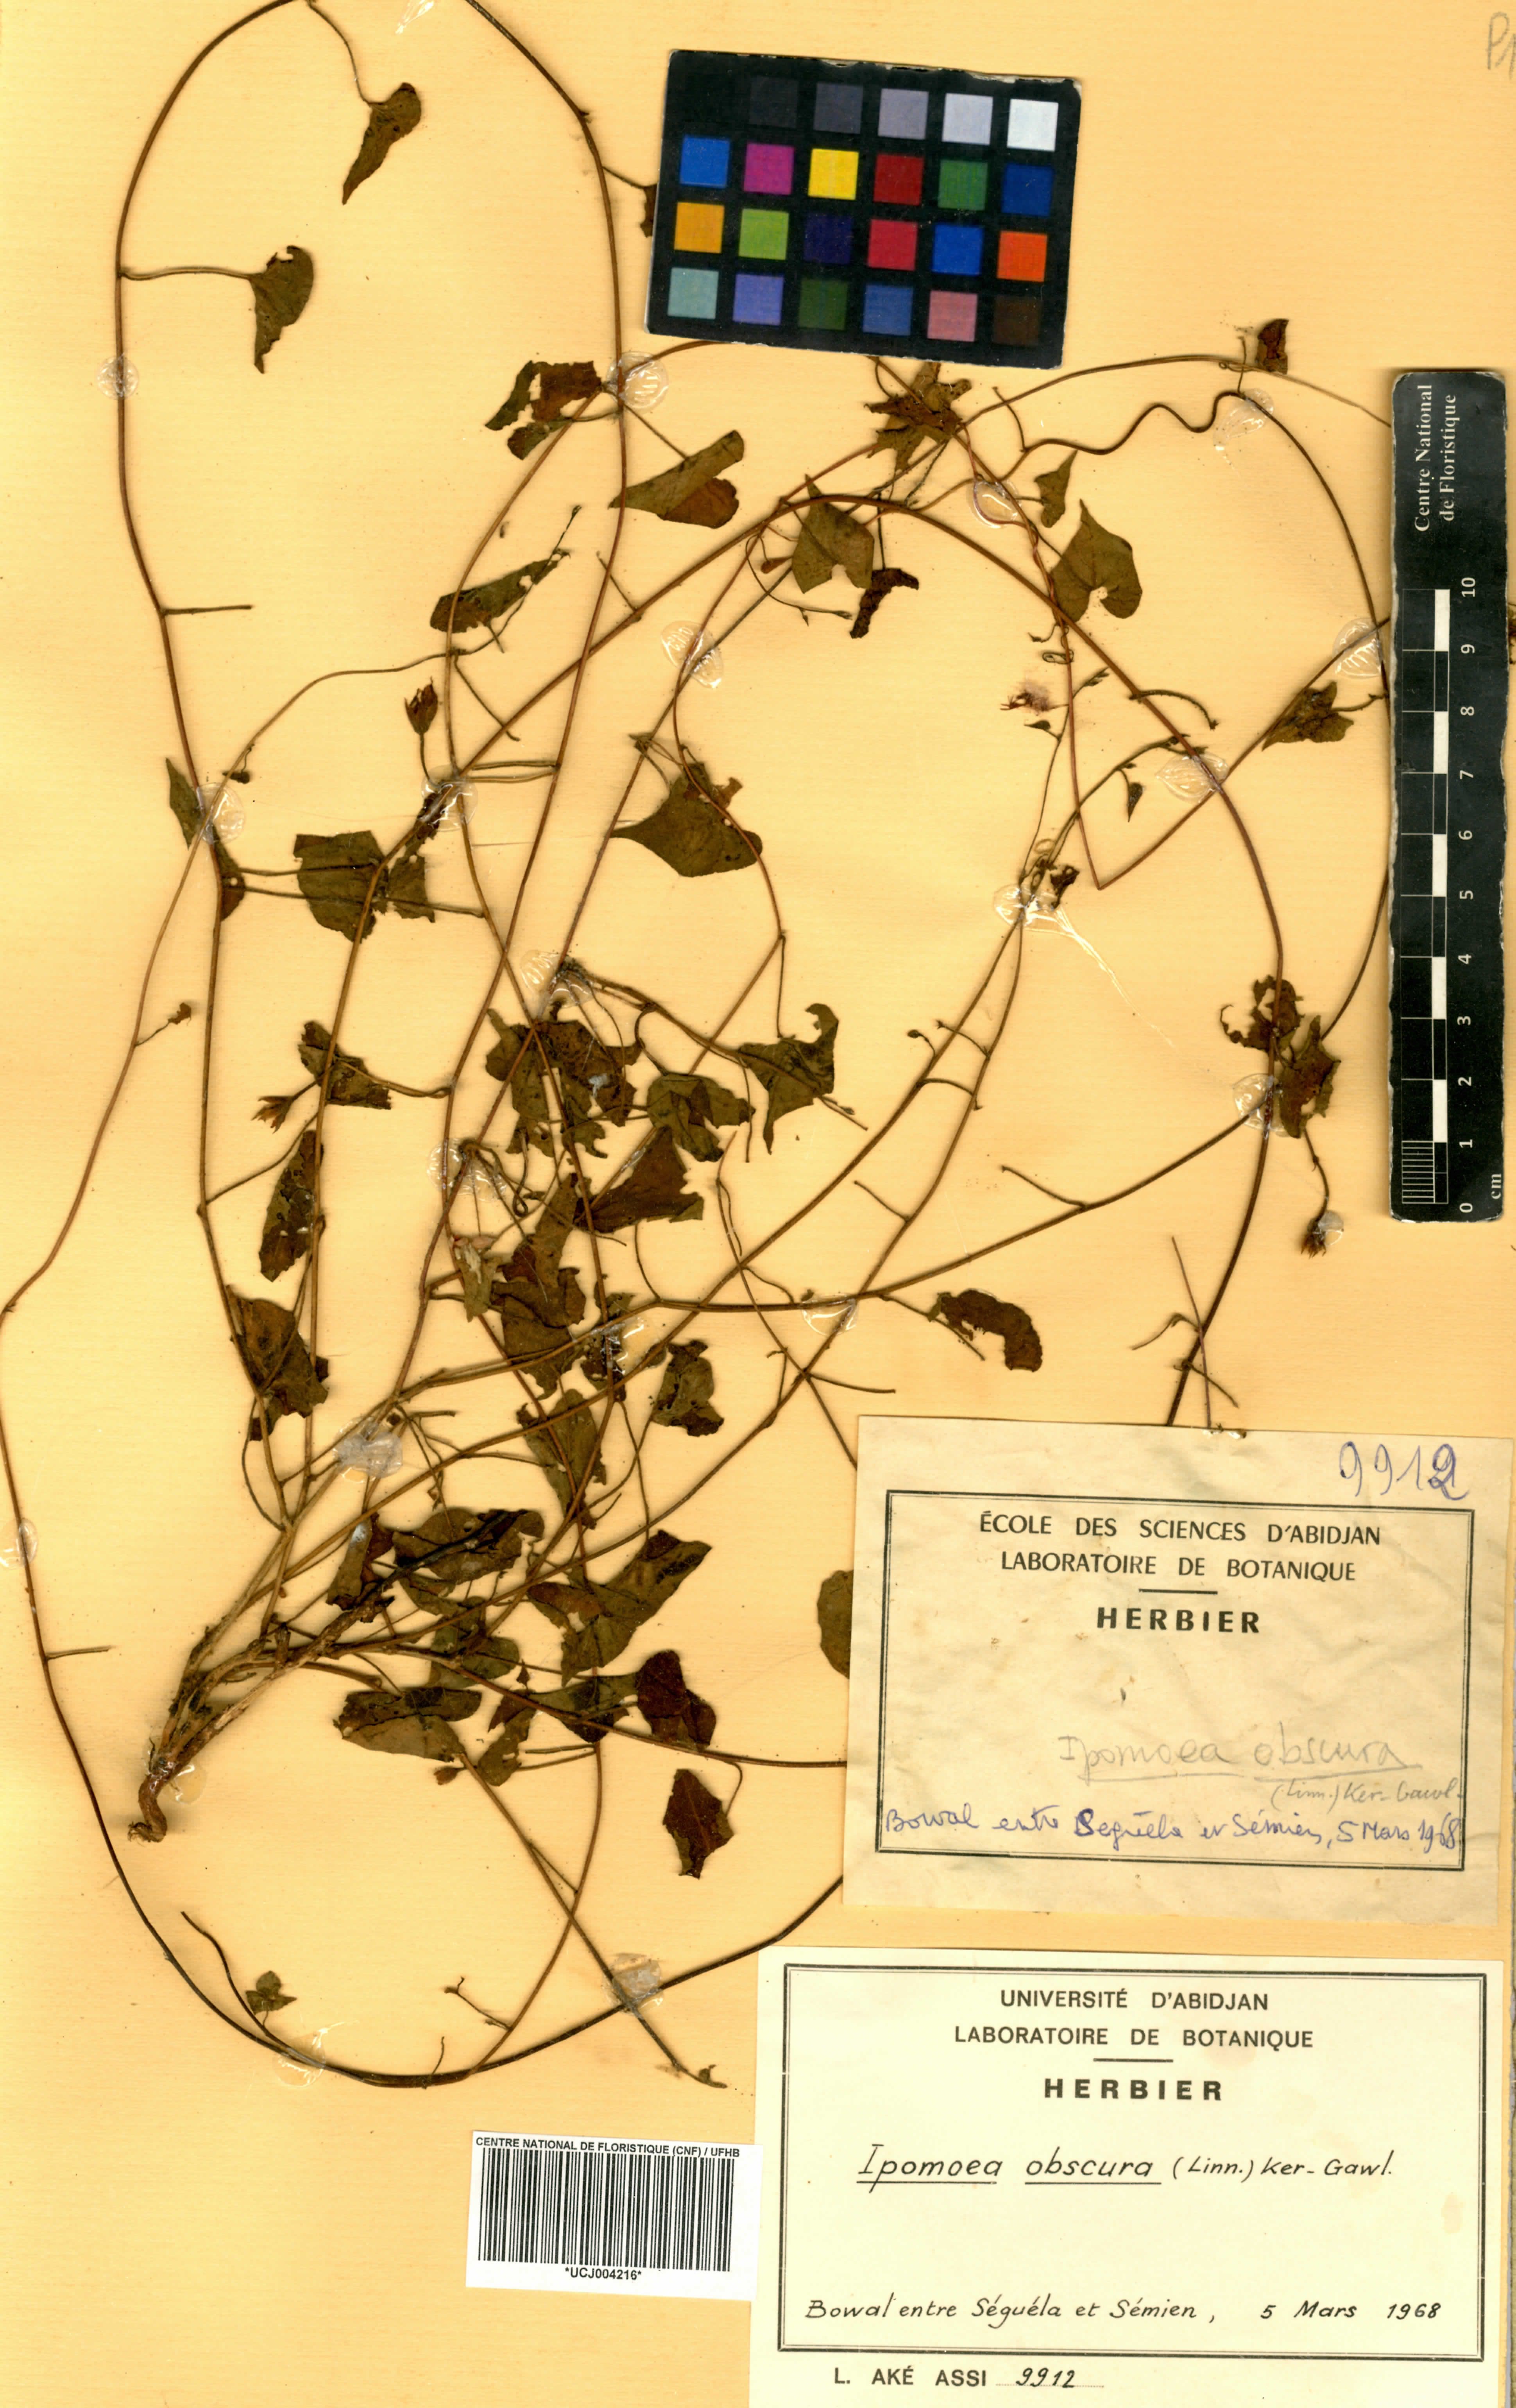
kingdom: Plantae
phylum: Tracheophyta
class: Magnoliopsida
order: Solanales
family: Convolvulaceae
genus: Ipomoea
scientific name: Ipomoea obscura
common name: Obscure morning-glory
